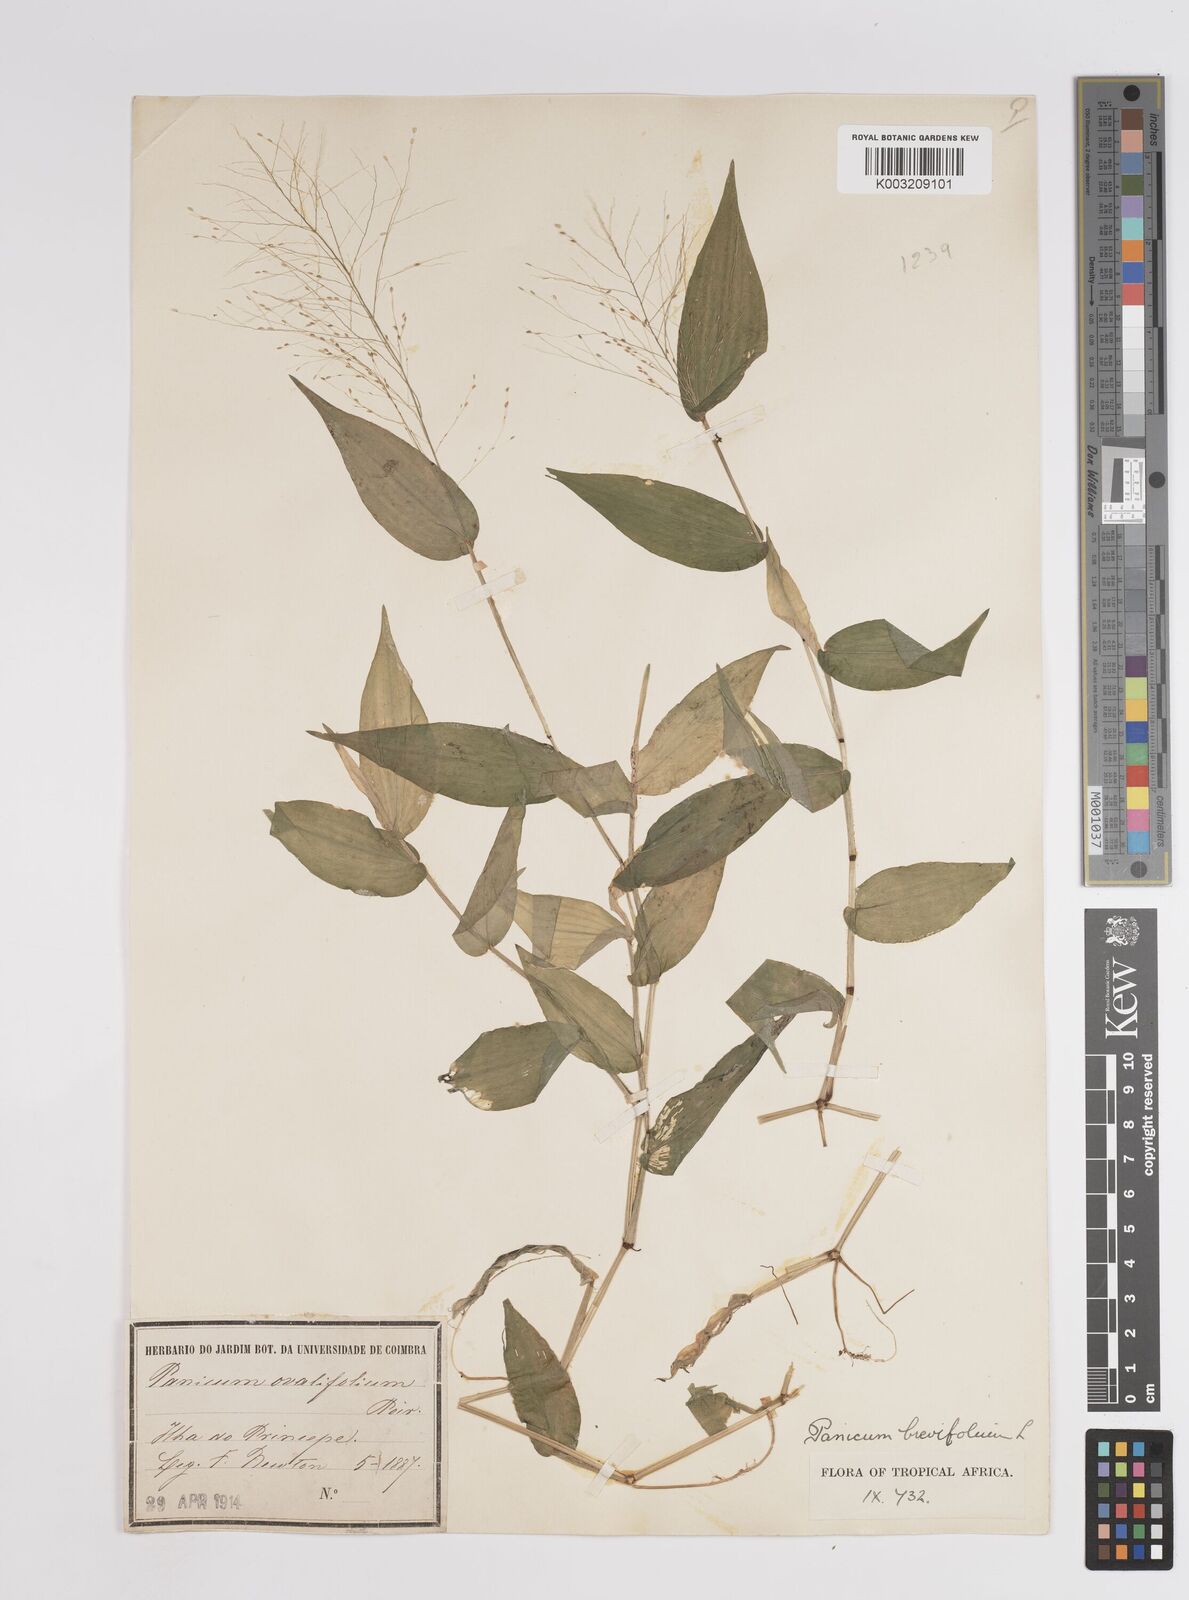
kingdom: Plantae
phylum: Tracheophyta
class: Liliopsida
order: Poales
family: Poaceae
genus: Panicum
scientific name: Panicum brevifolium
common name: Shortleaf panic grass
